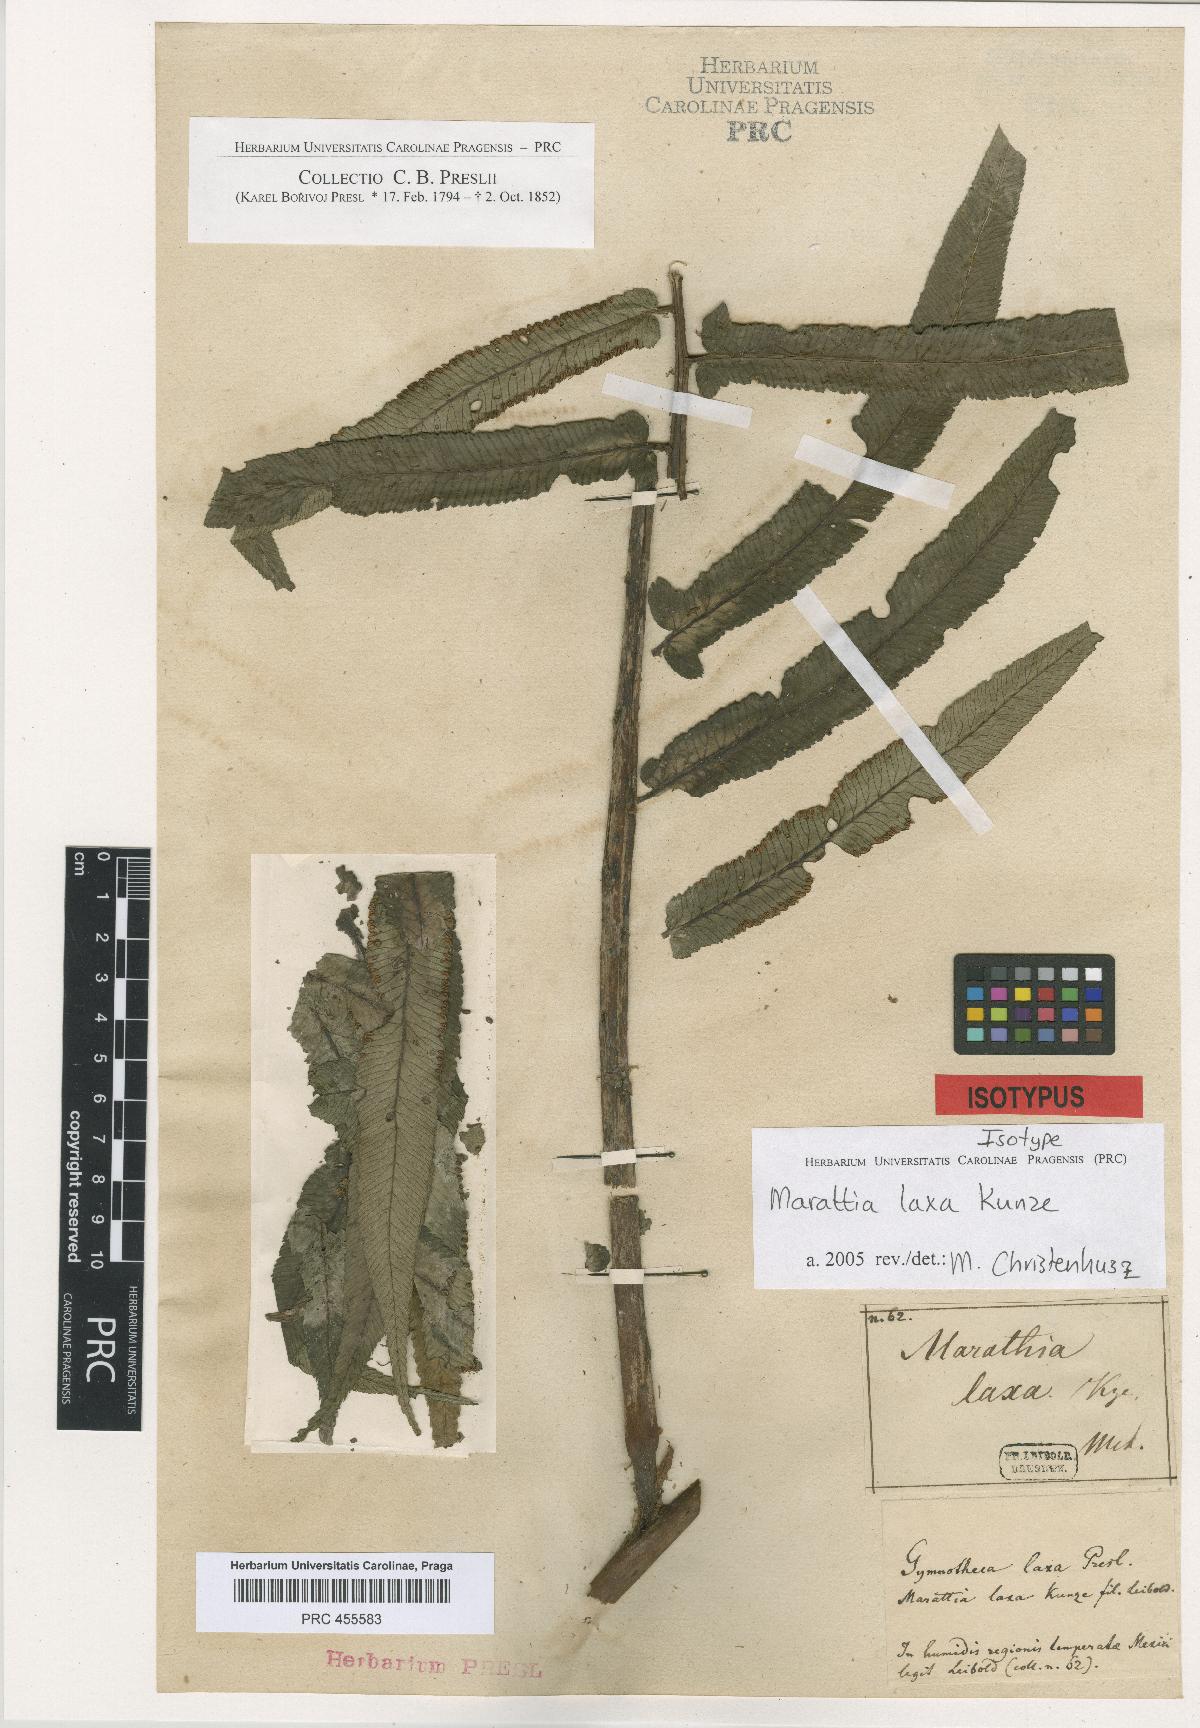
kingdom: Plantae
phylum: Tracheophyta
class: Polypodiopsida
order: Marattiales
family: Marattiaceae
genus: Marattia
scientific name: Marattia laxa
